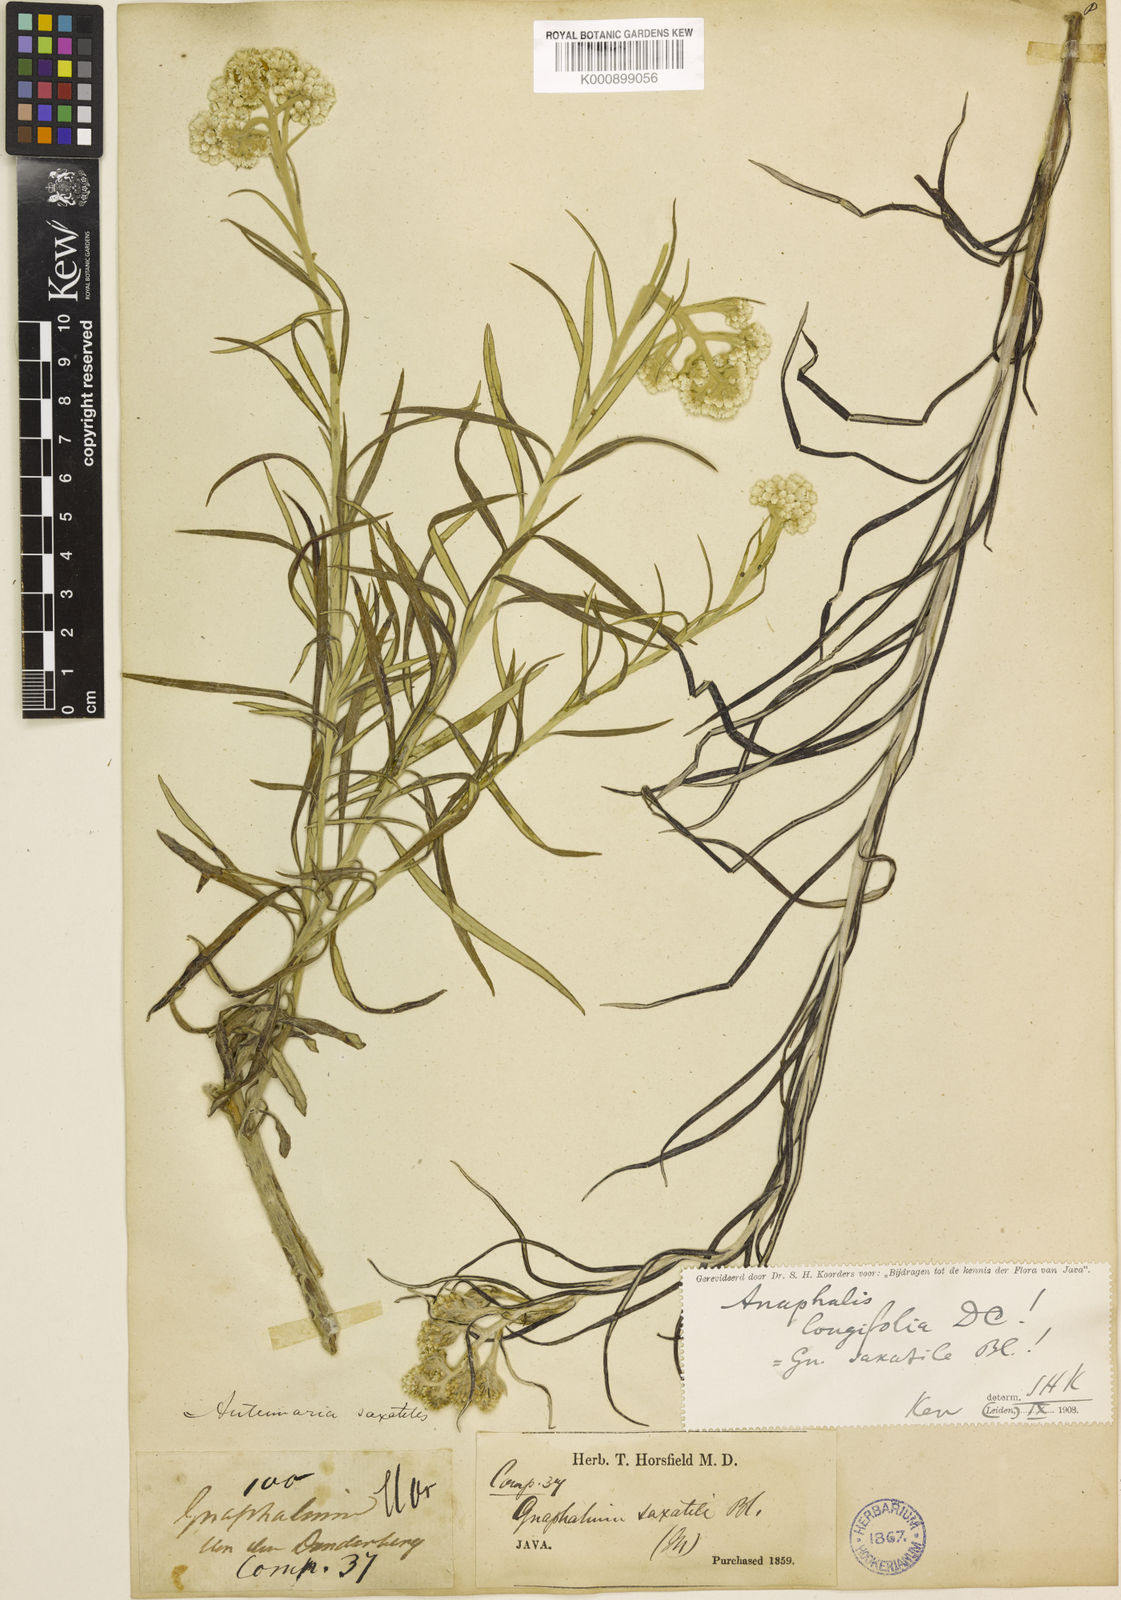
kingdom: Plantae
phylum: Tracheophyta
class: Magnoliopsida
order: Asterales
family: Asteraceae
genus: Anaphalis
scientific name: Anaphalis longifolia
